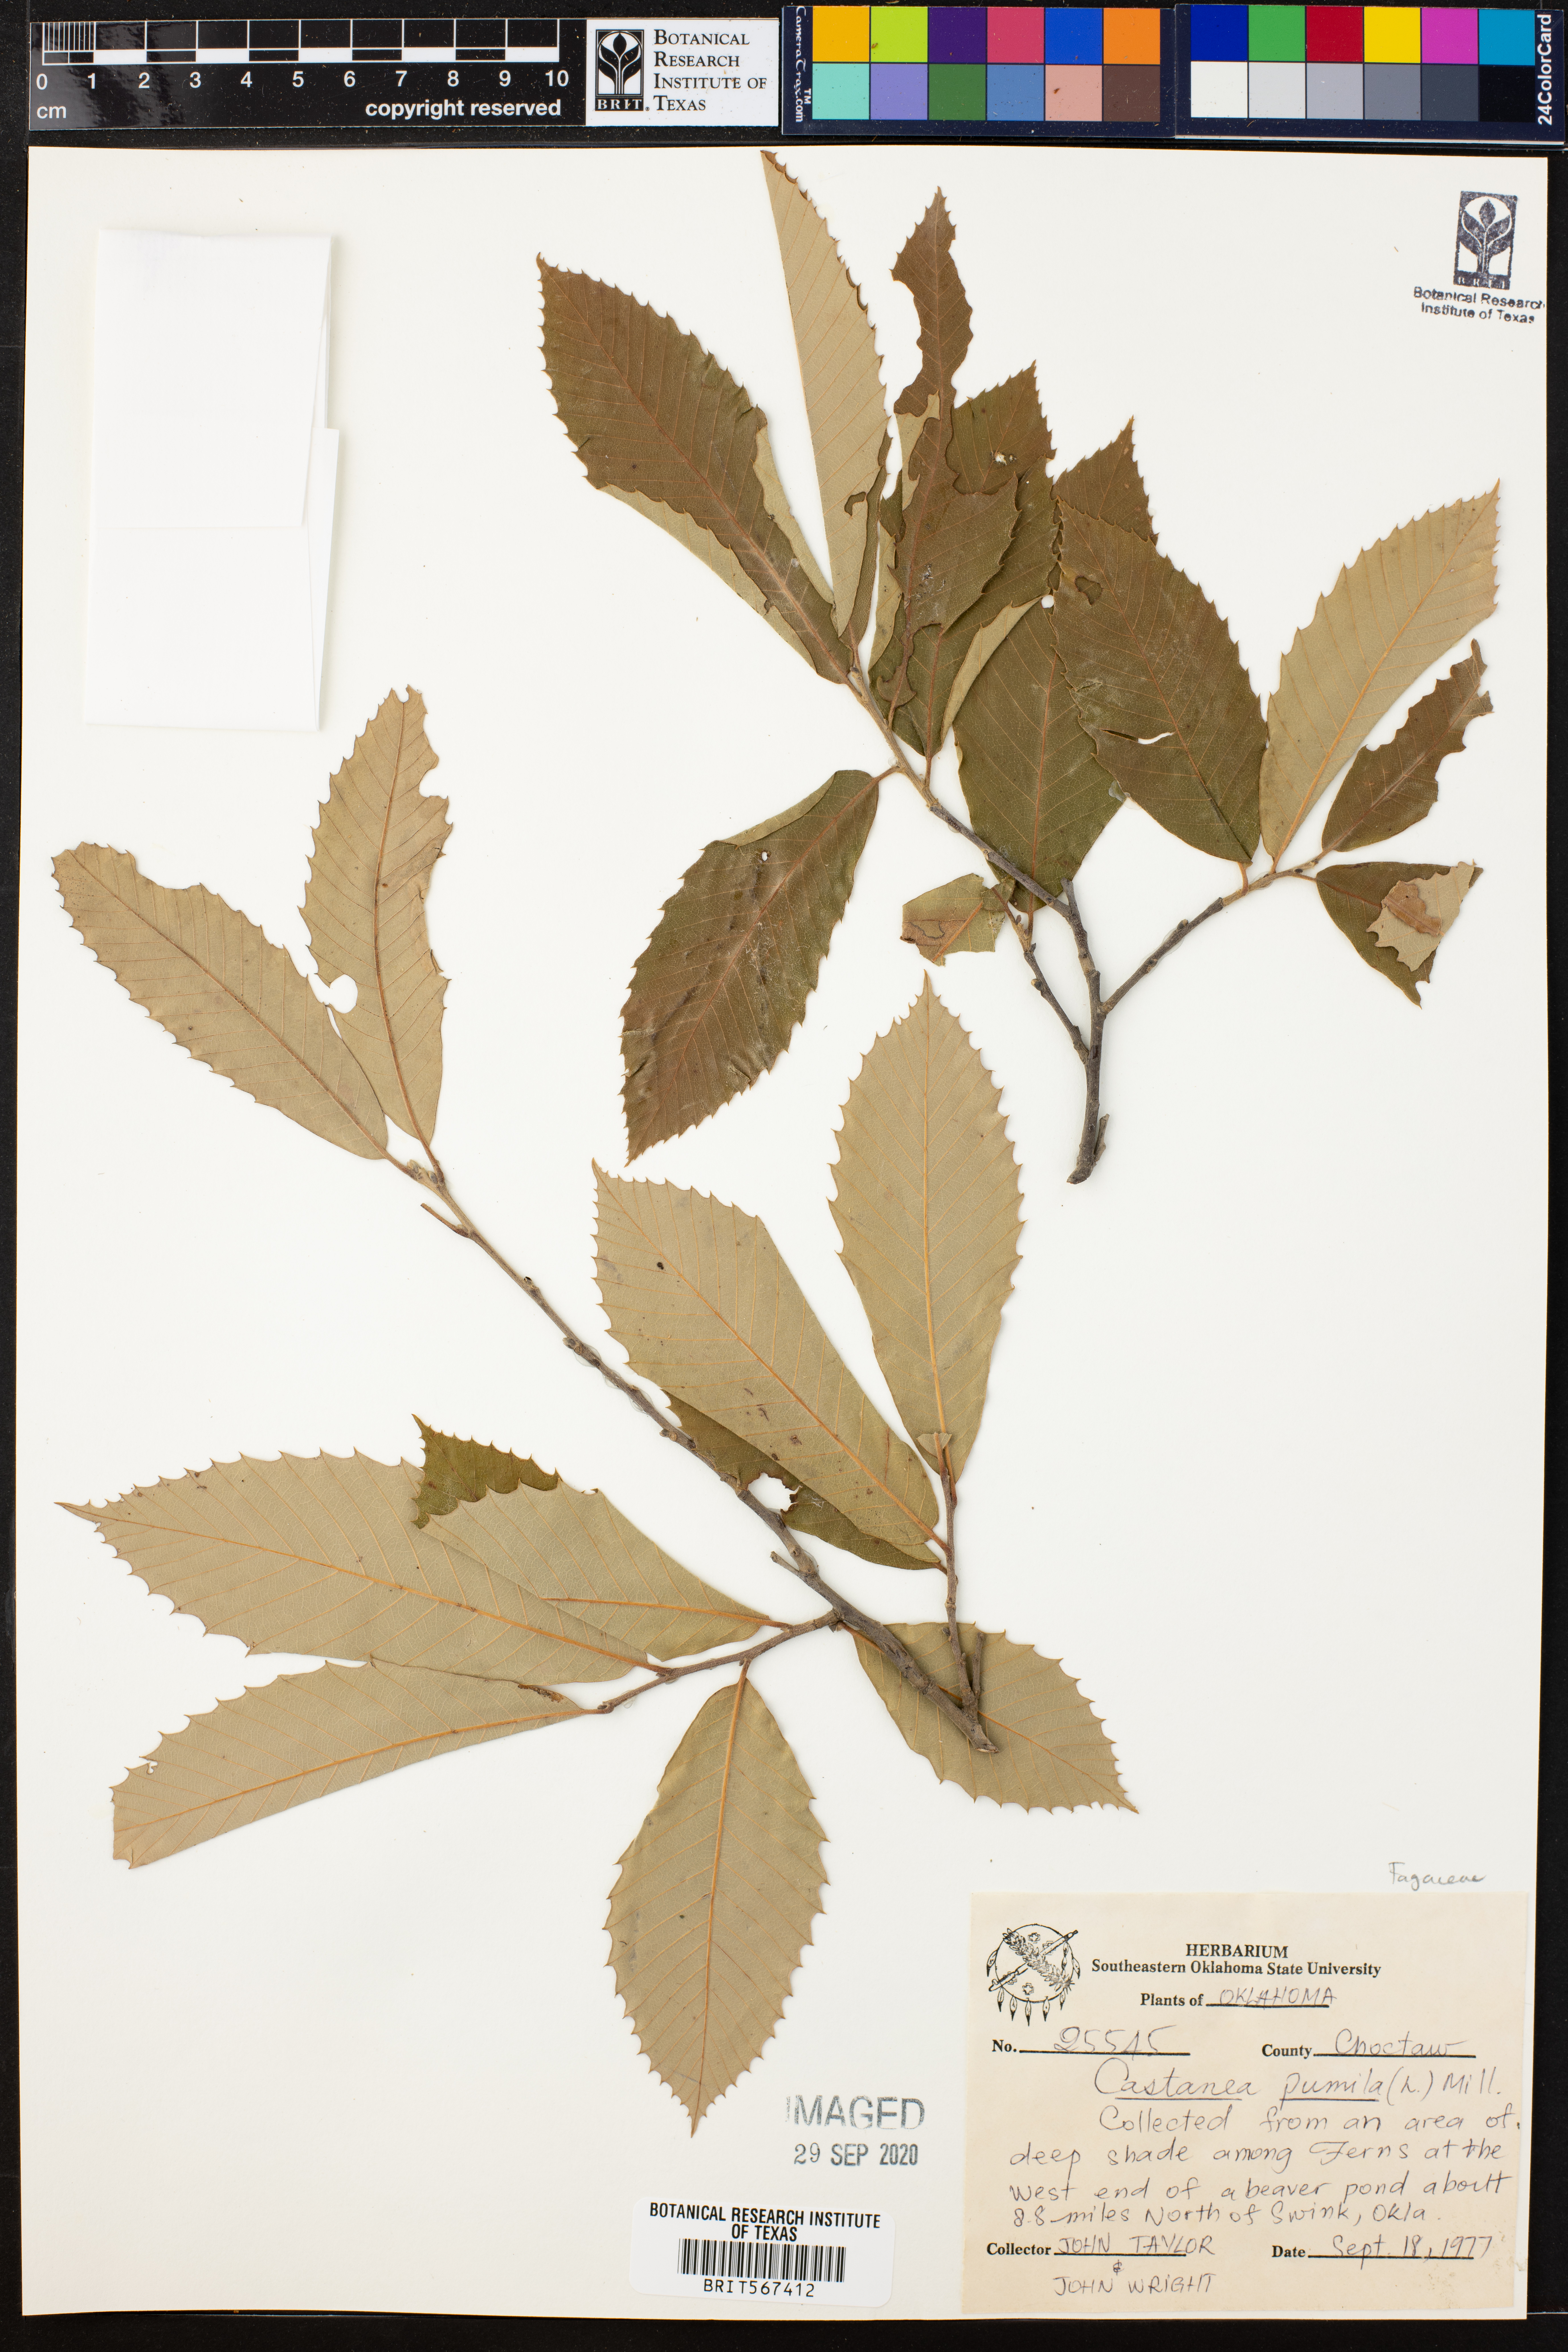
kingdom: Plantae
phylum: Tracheophyta
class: Magnoliopsida
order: Fagales
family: Fagaceae
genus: Castanea
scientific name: Castanea pumila
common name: Chinkapin
